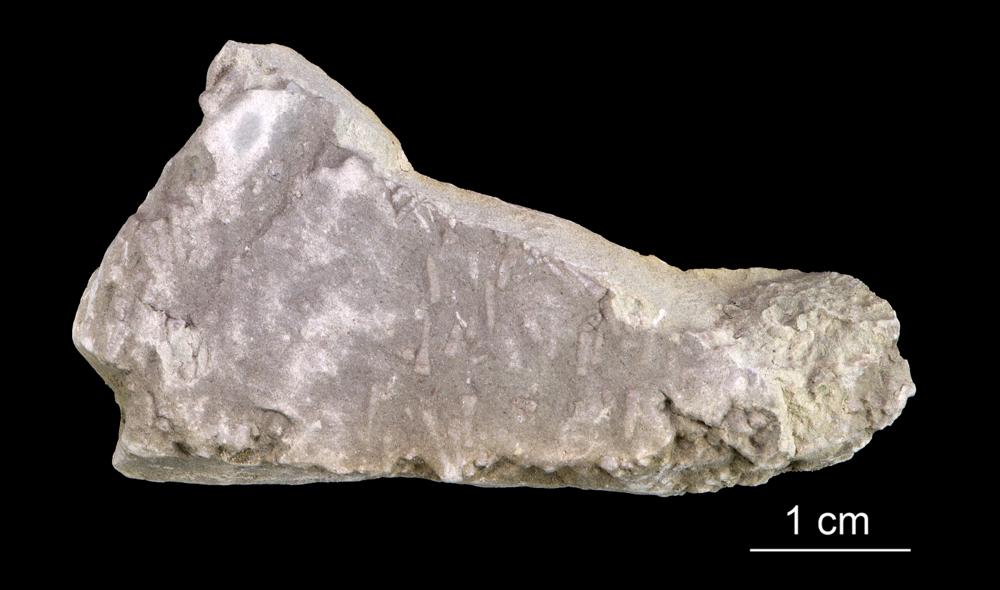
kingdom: Animalia
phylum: Annelida
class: Polychaeta
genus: Volborthella
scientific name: Volborthella tenuis
